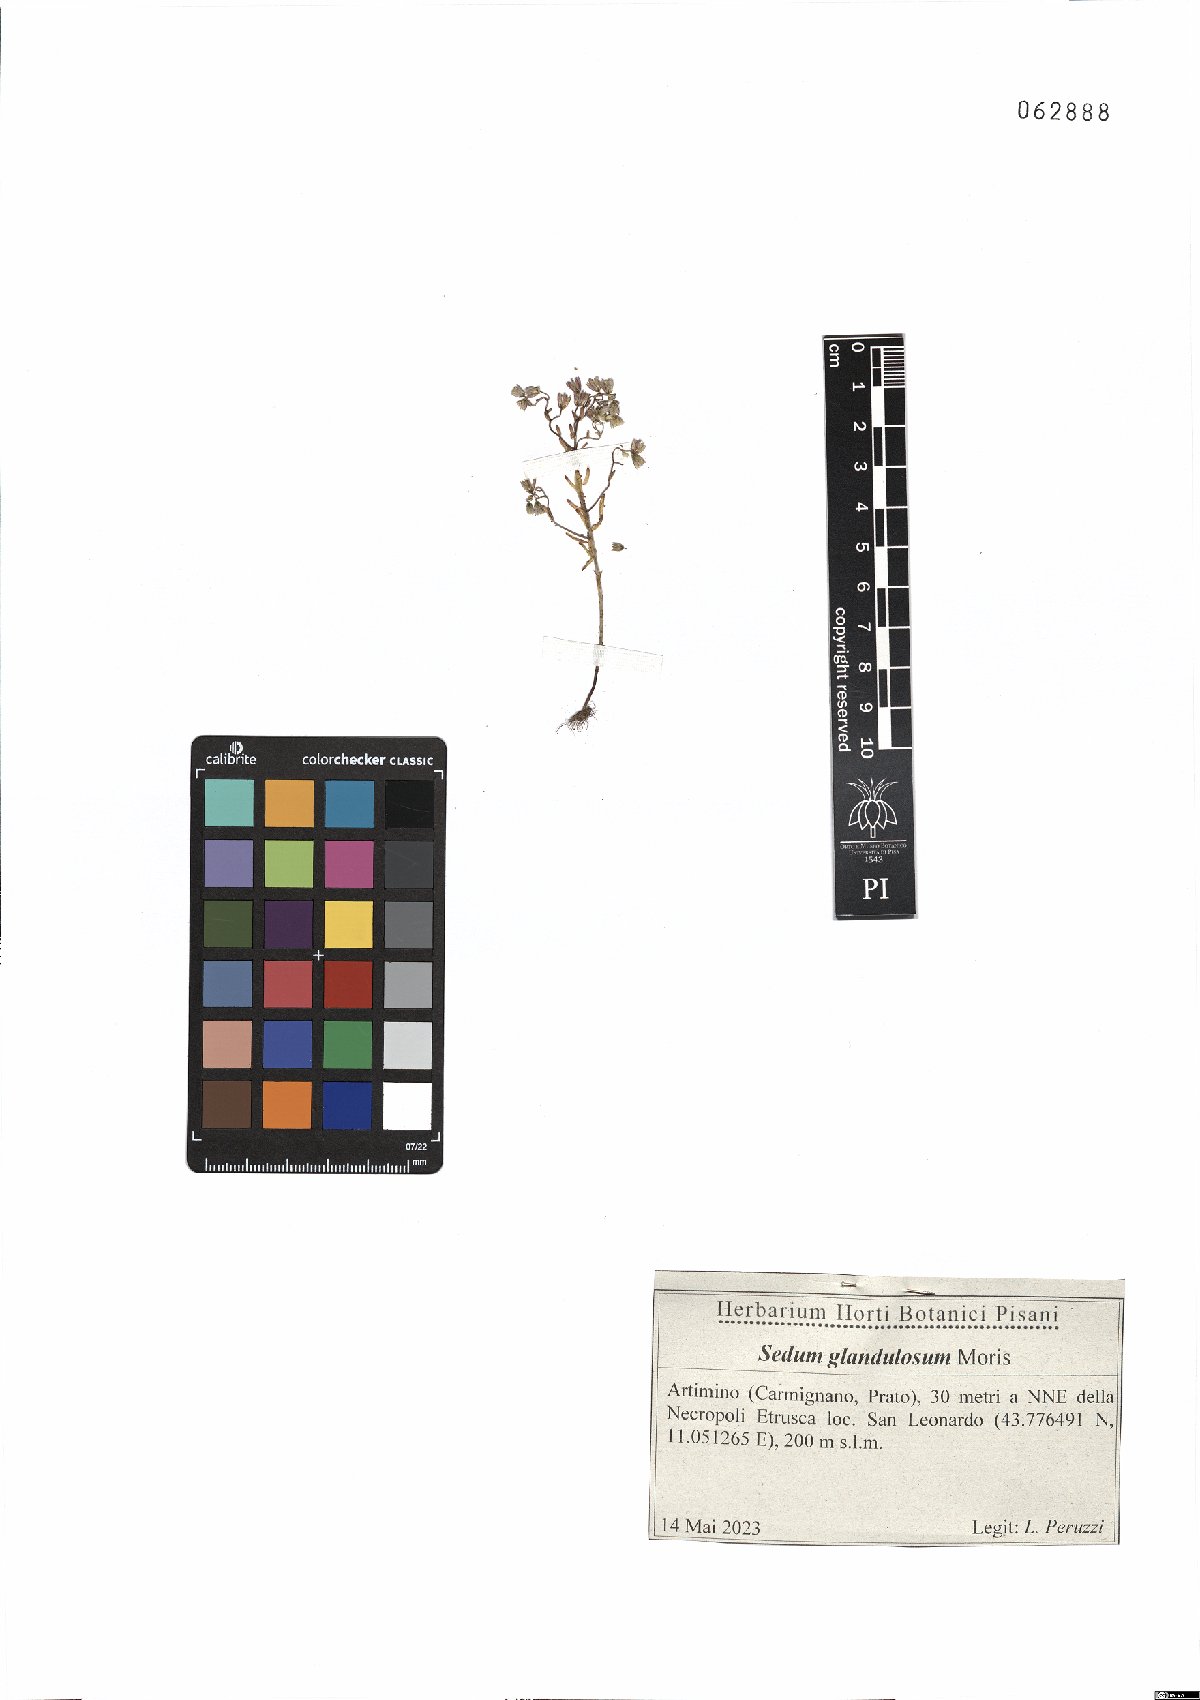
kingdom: Plantae
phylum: Tracheophyta
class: Magnoliopsida
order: Saxifragales
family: Crassulaceae
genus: Sedum
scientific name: Sedum villosum
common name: Hairy stonecrop
